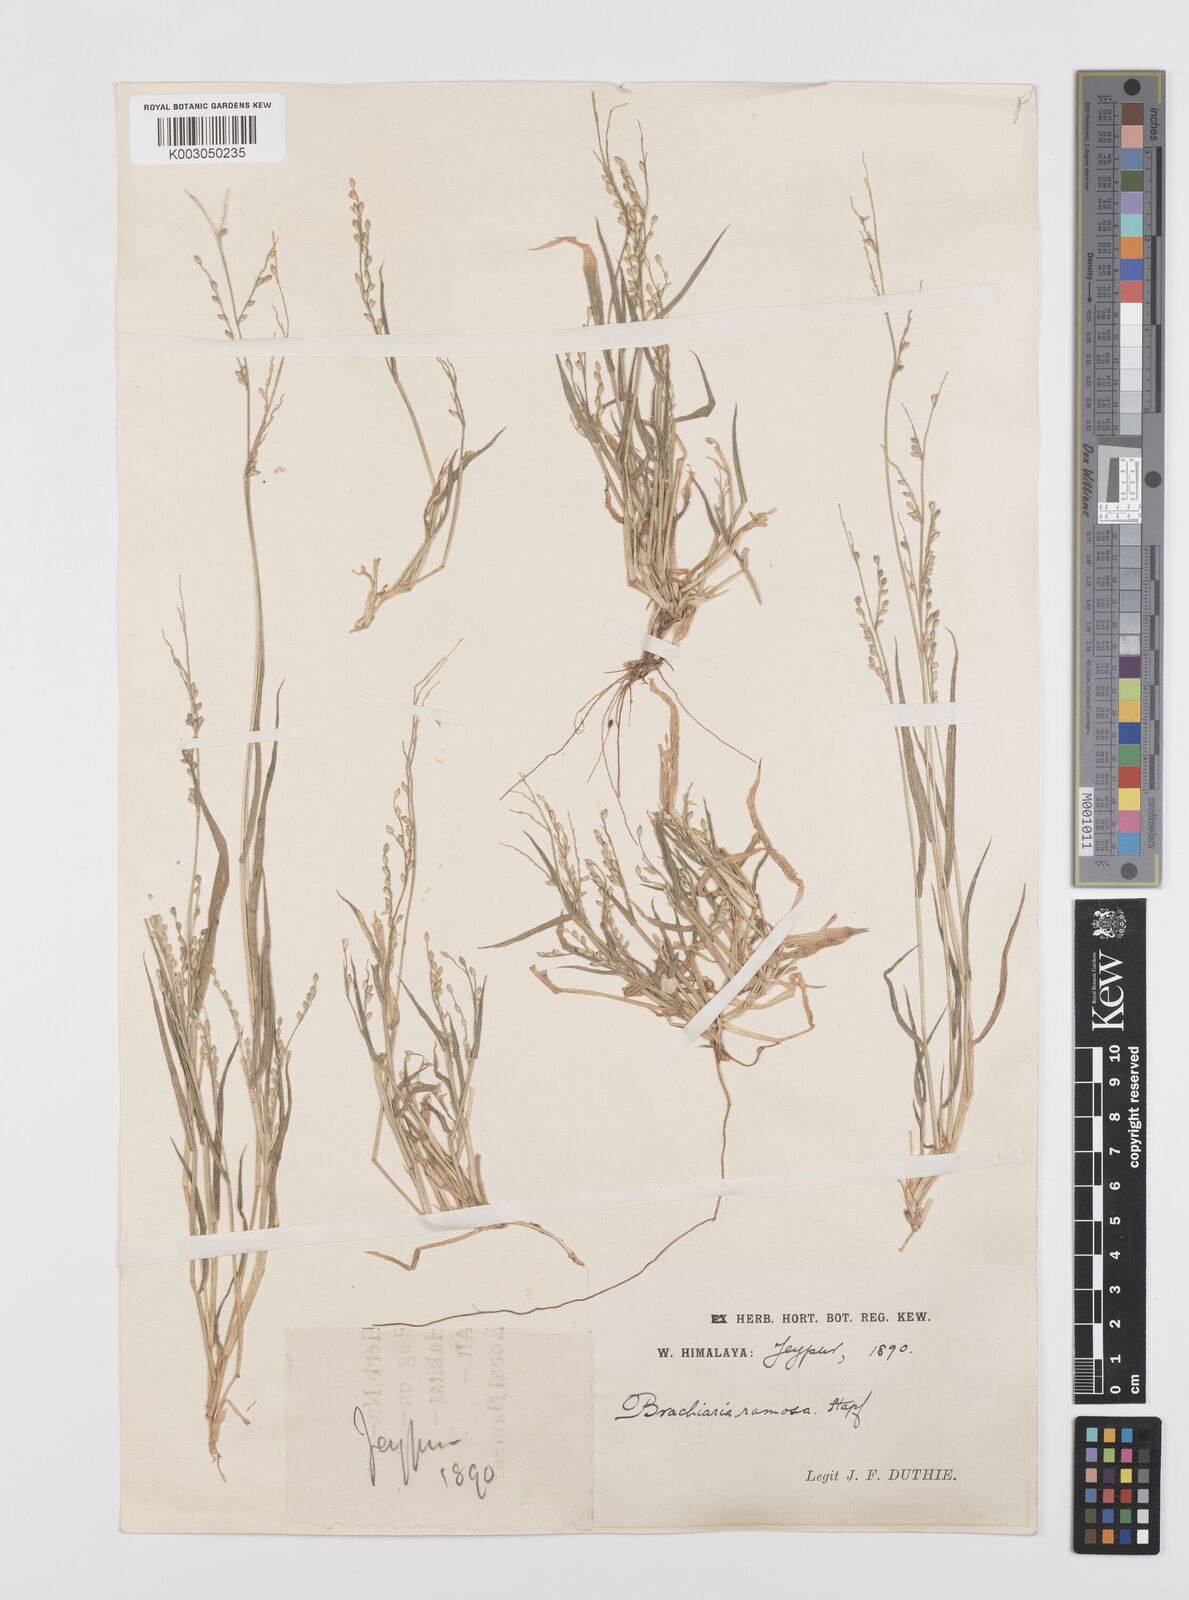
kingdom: Plantae
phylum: Tracheophyta
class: Liliopsida
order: Poales
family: Poaceae
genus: Urochloa
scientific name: Urochloa ramosa
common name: Browntop millet
